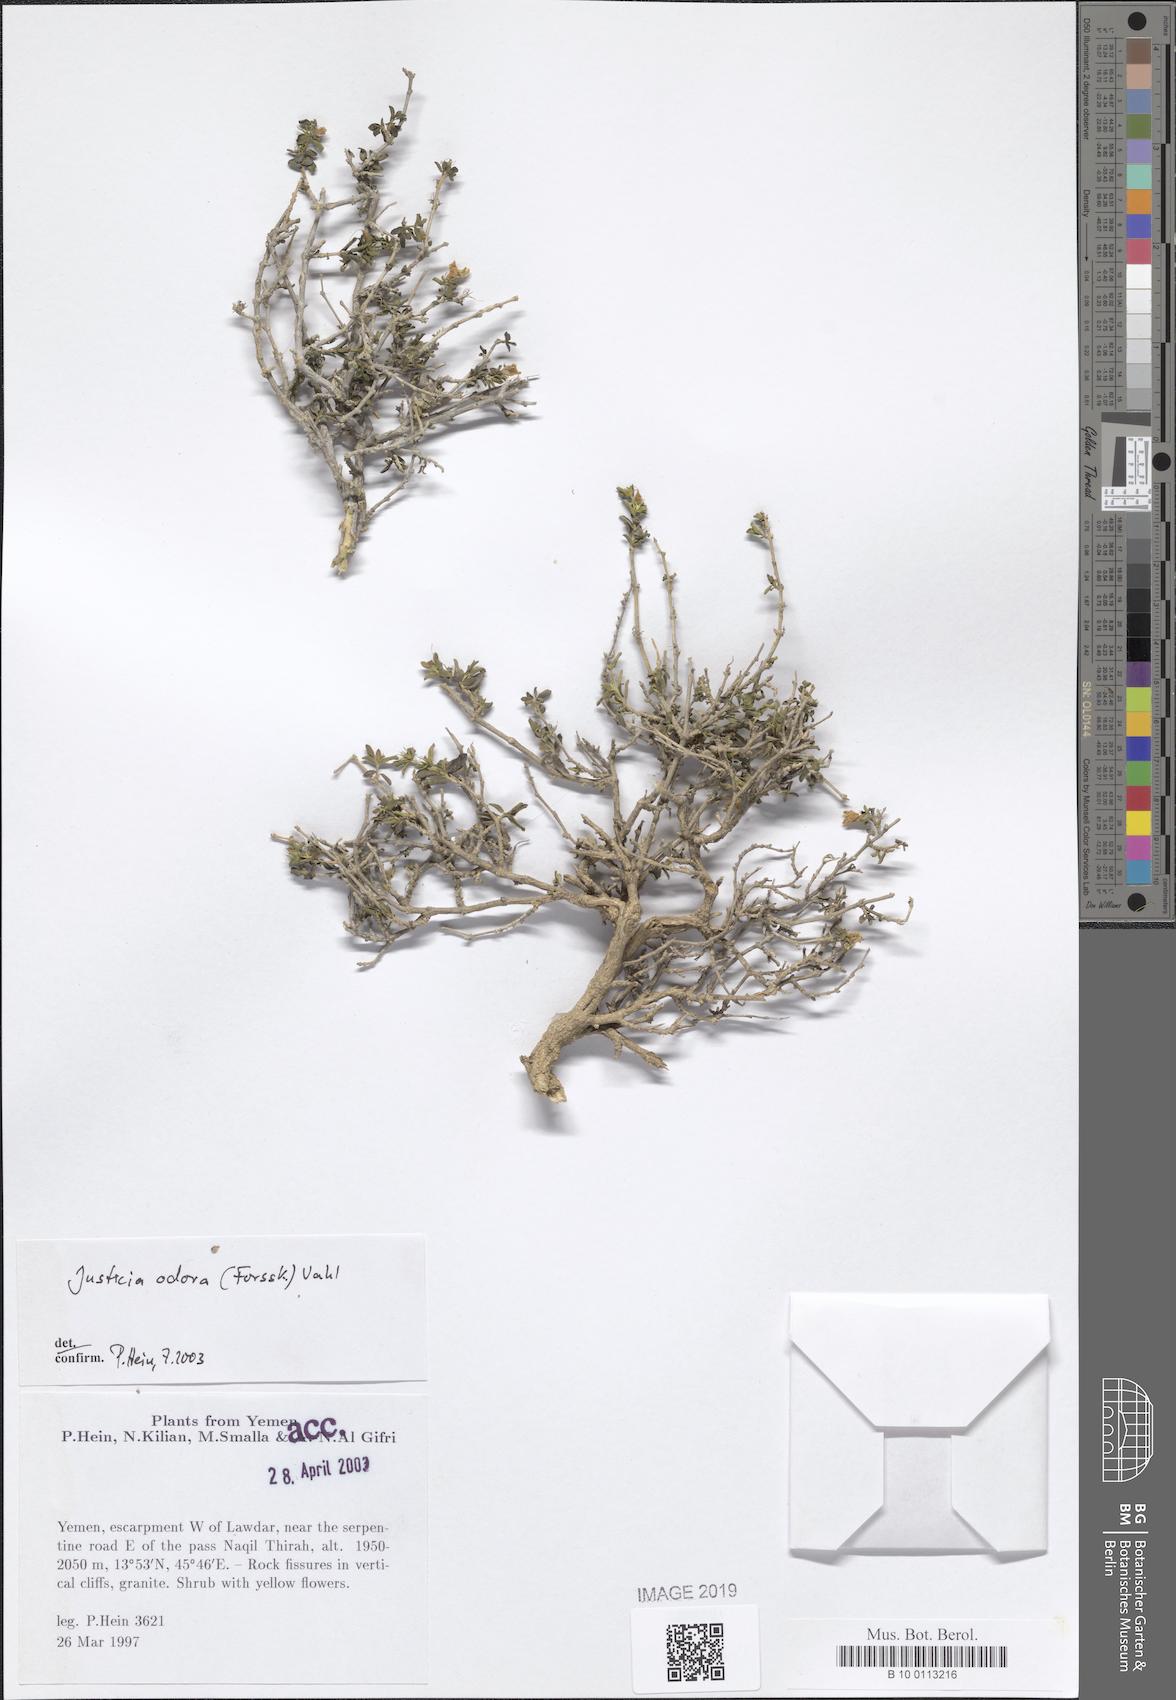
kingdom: Plantae
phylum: Tracheophyta
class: Magnoliopsida
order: Lamiales
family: Acanthaceae
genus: Justicia
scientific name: Justicia odora
